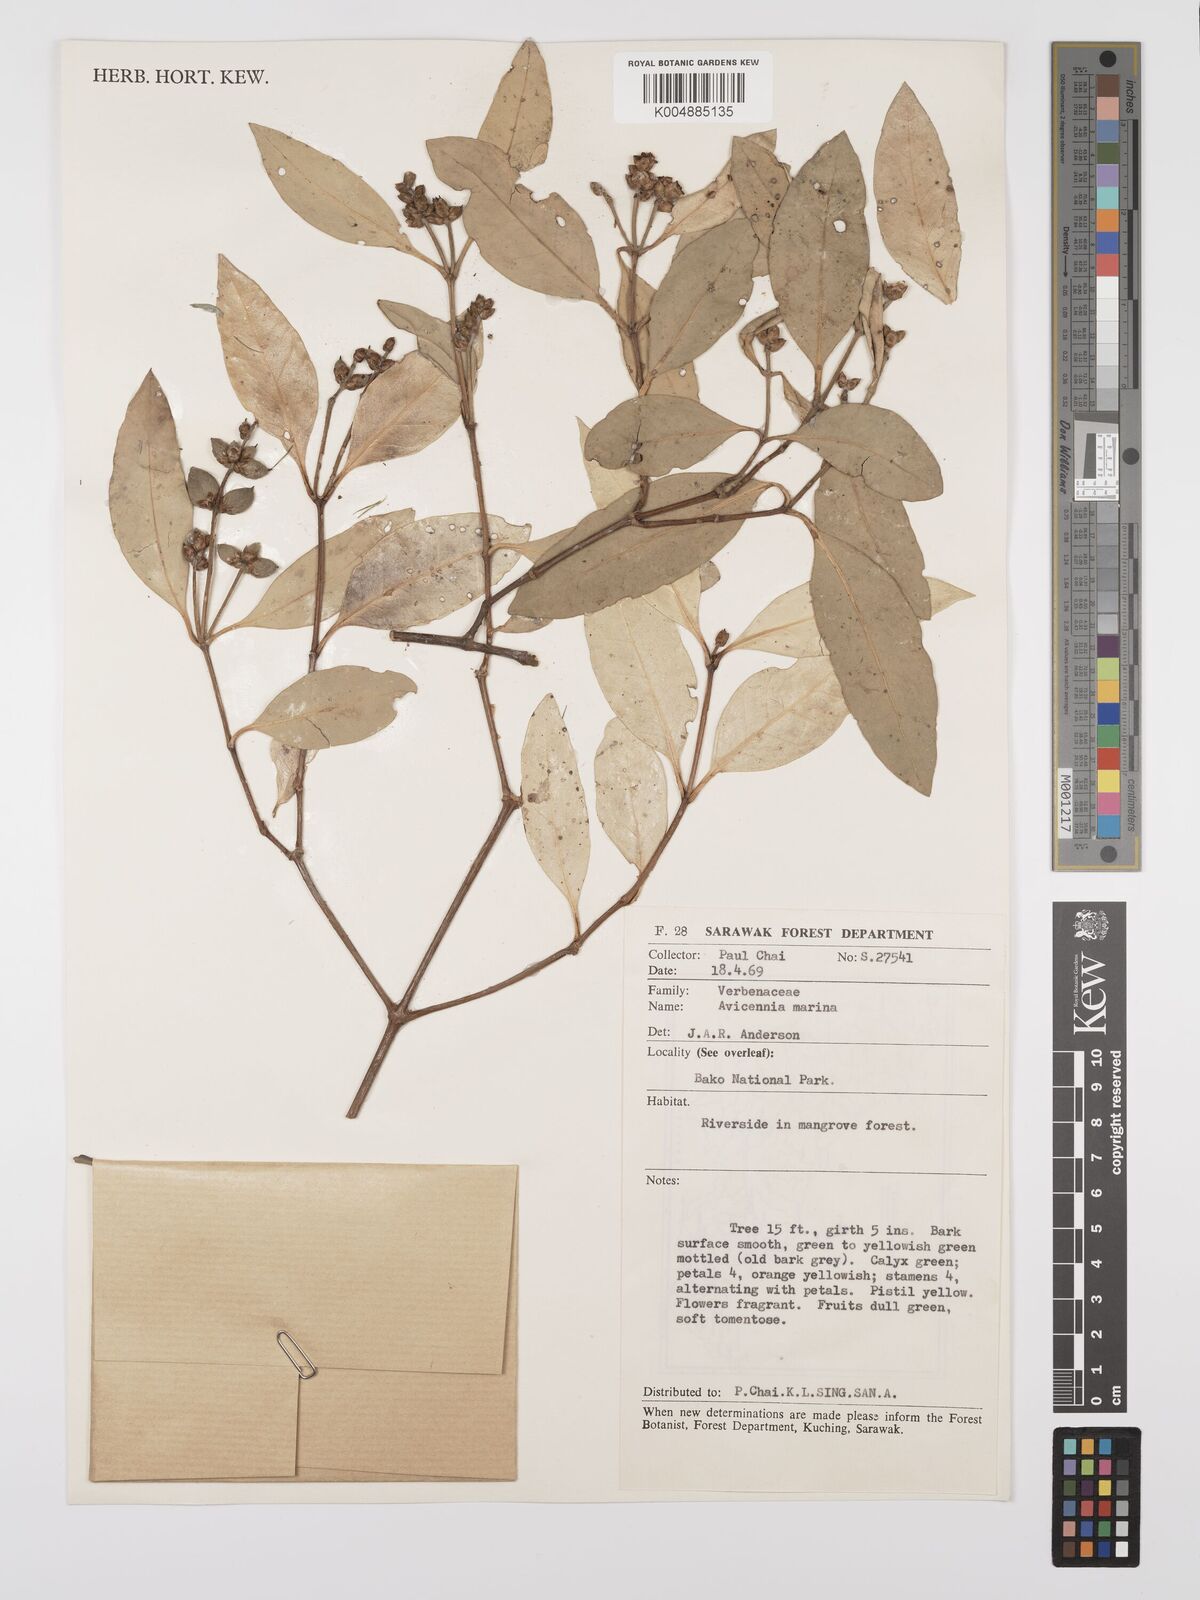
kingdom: Plantae
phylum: Tracheophyta
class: Magnoliopsida
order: Lamiales
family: Acanthaceae
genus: Avicennia
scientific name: Avicennia marina
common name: Gray mangrove
